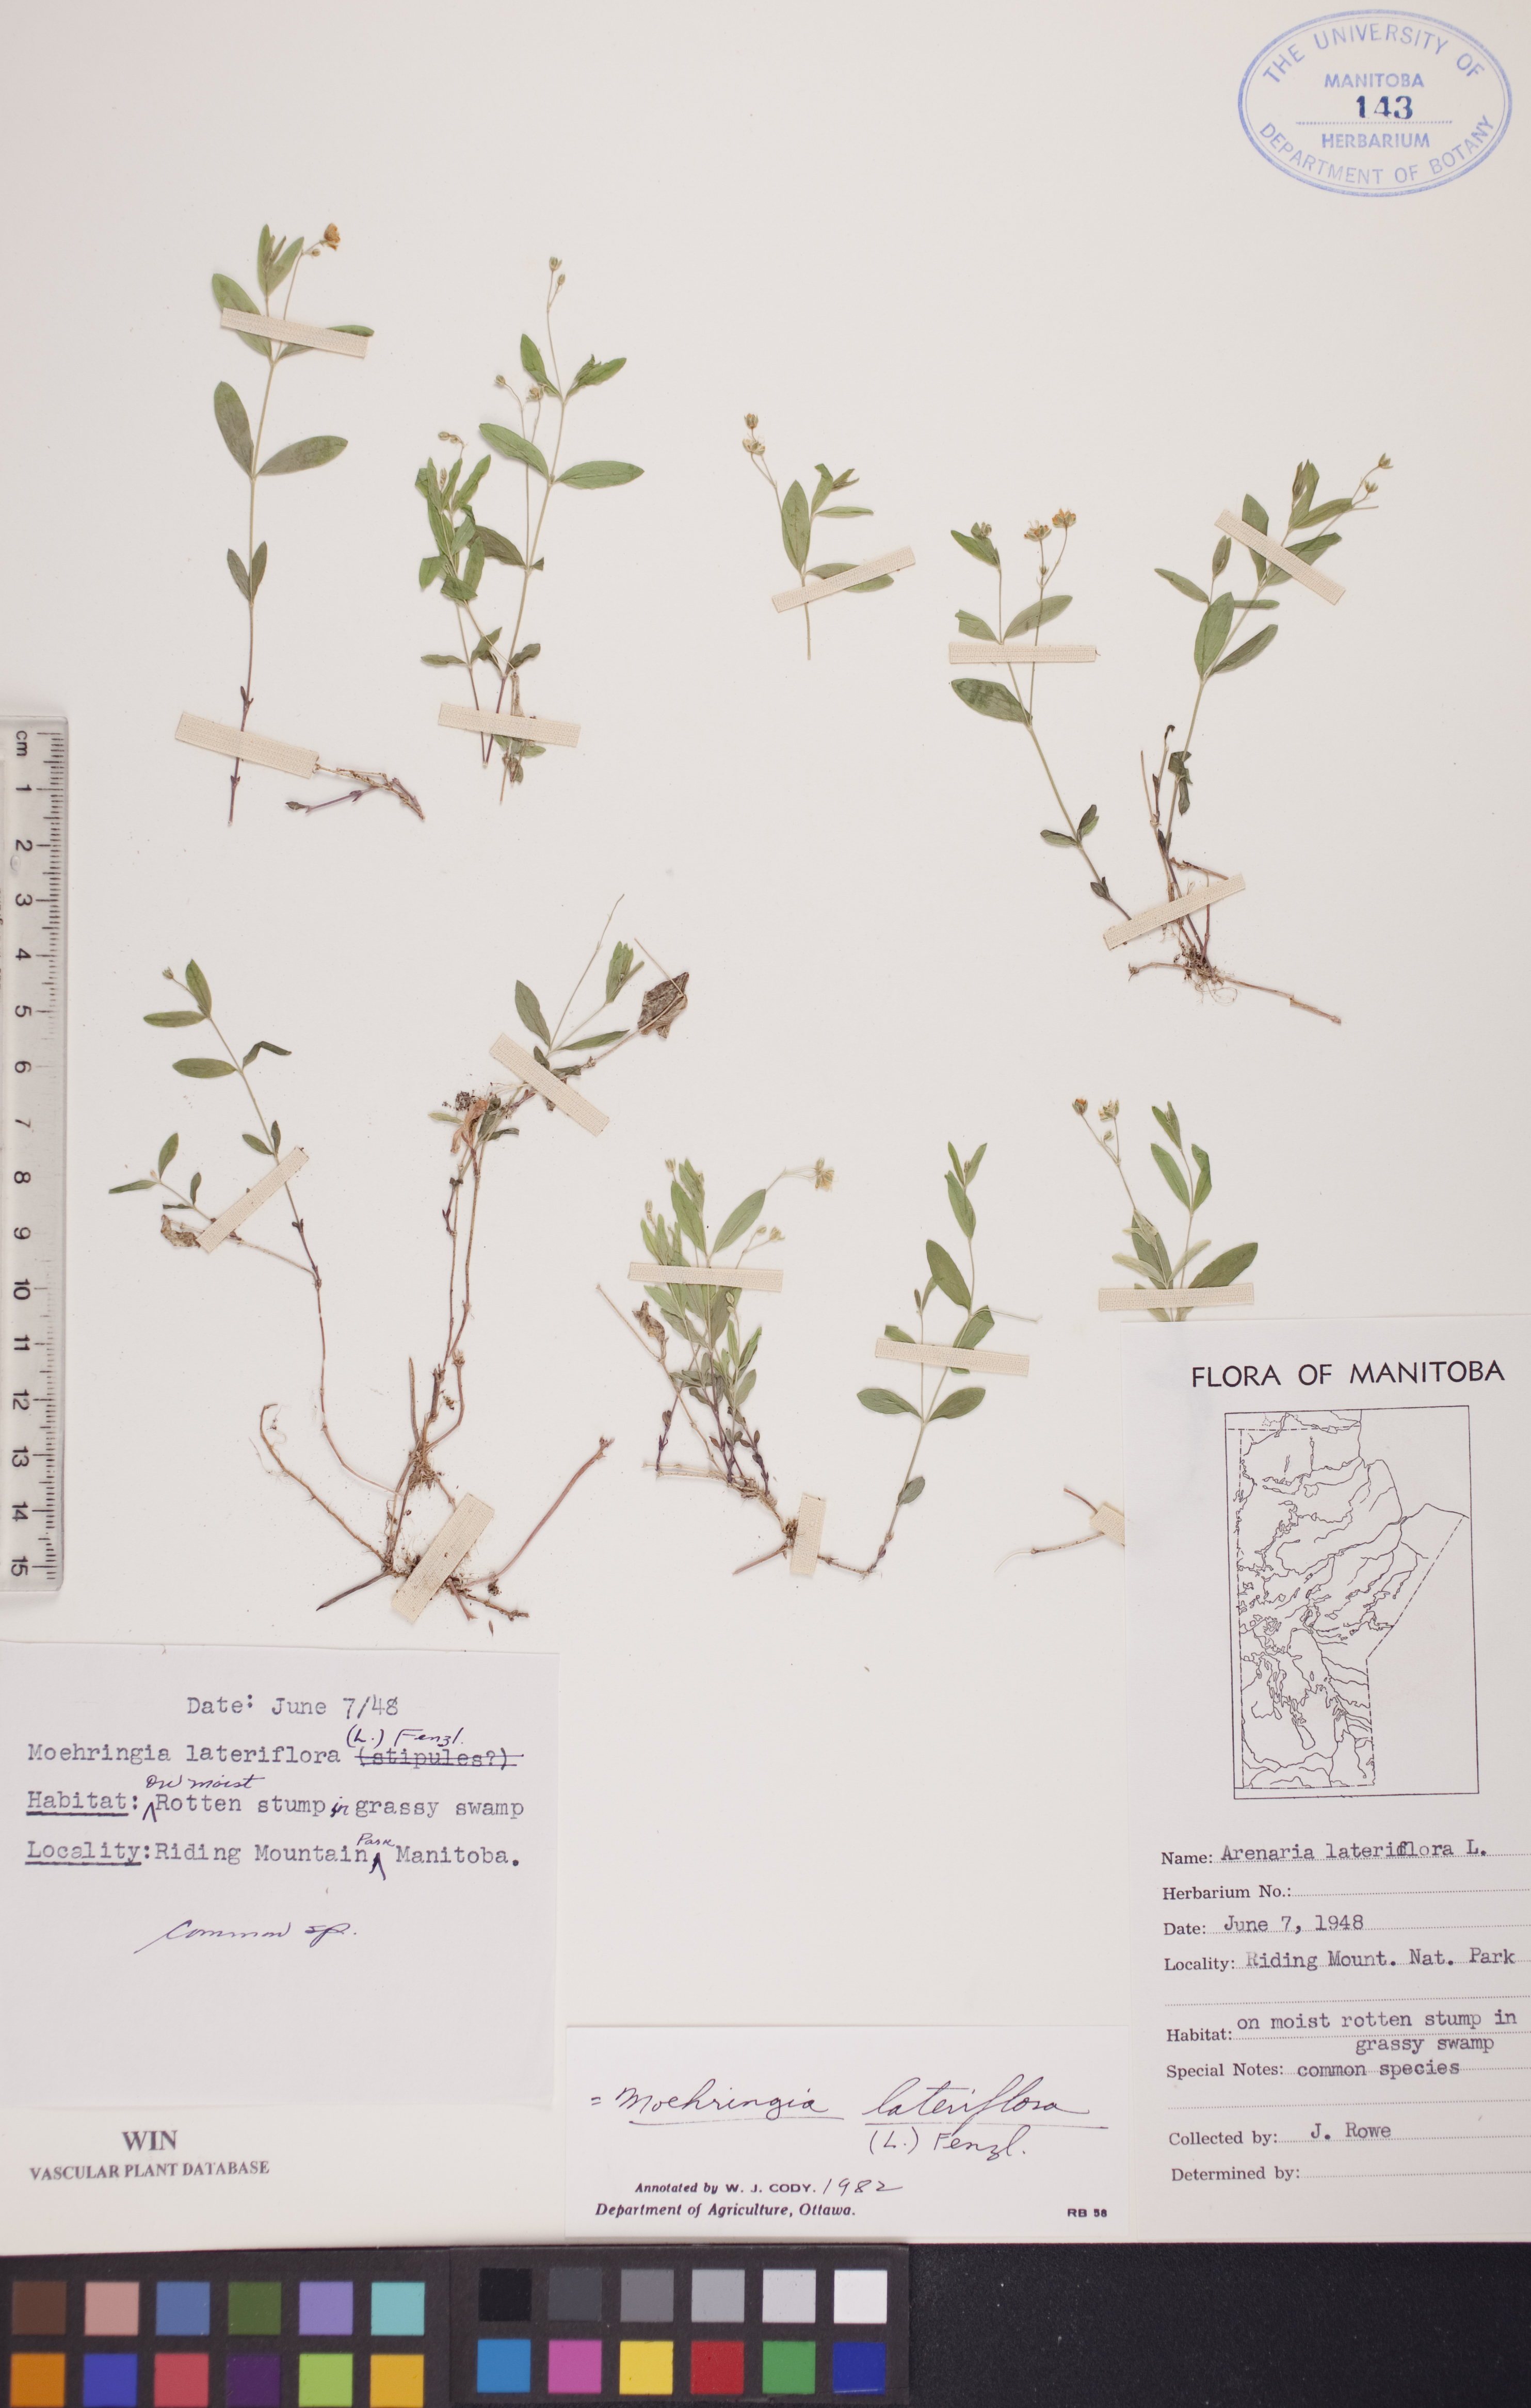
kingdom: Plantae
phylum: Tracheophyta
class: Magnoliopsida
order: Caryophyllales
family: Caryophyllaceae
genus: Moehringia
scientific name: Moehringia lateriflora
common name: Blunt-leaved sandwort
